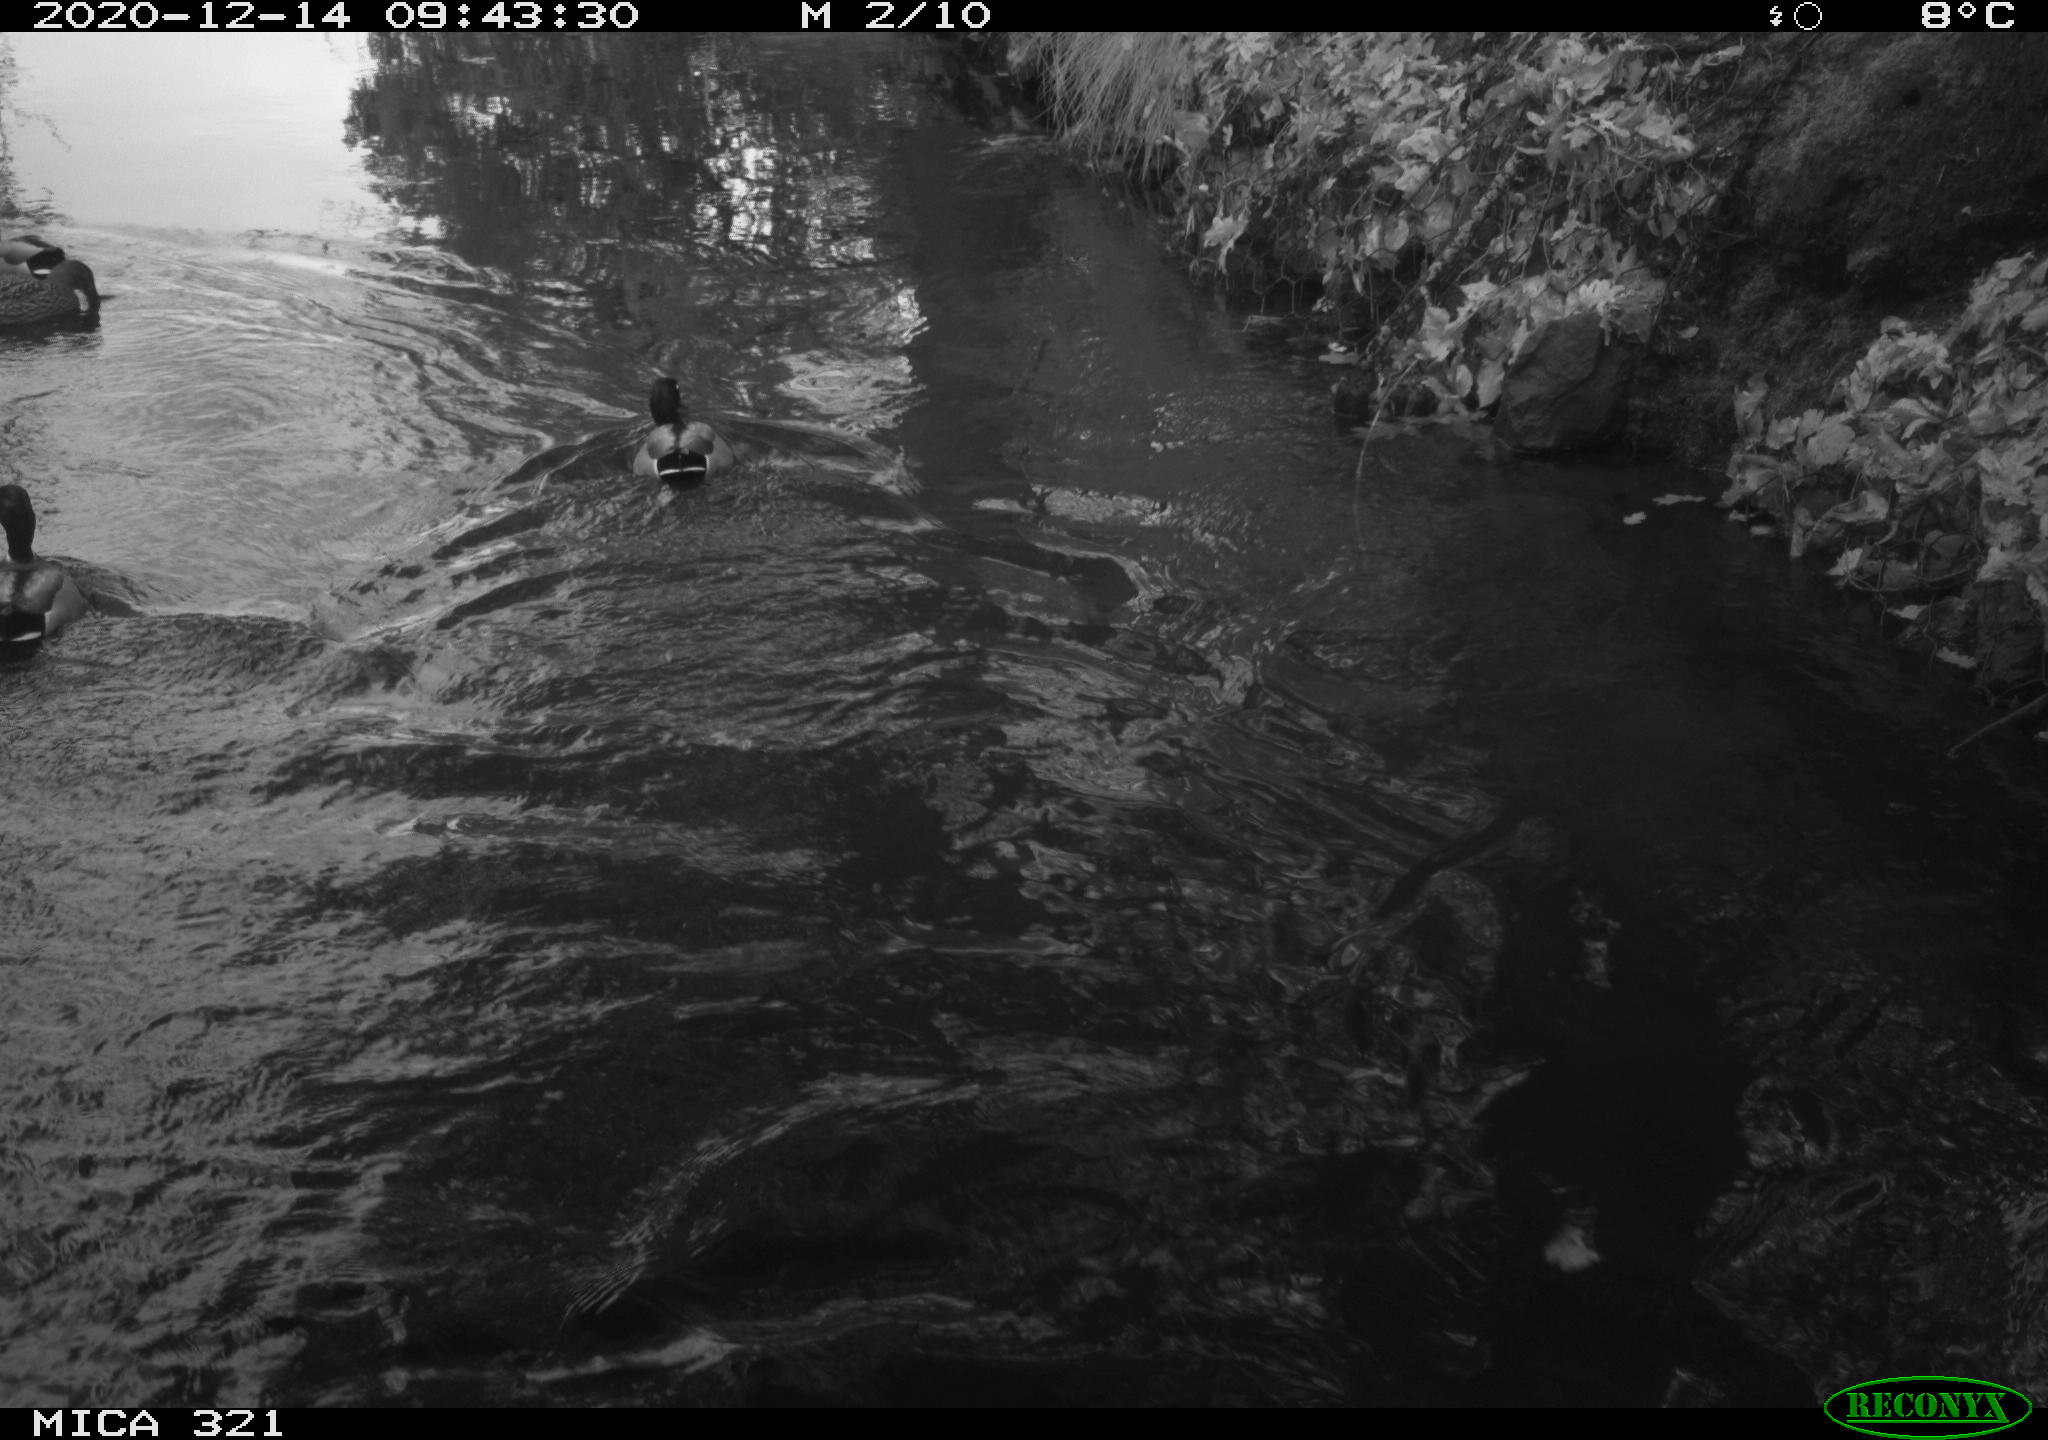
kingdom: Animalia
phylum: Chordata
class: Aves
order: Anseriformes
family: Anatidae
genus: Anas
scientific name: Anas platyrhynchos
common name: Mallard
